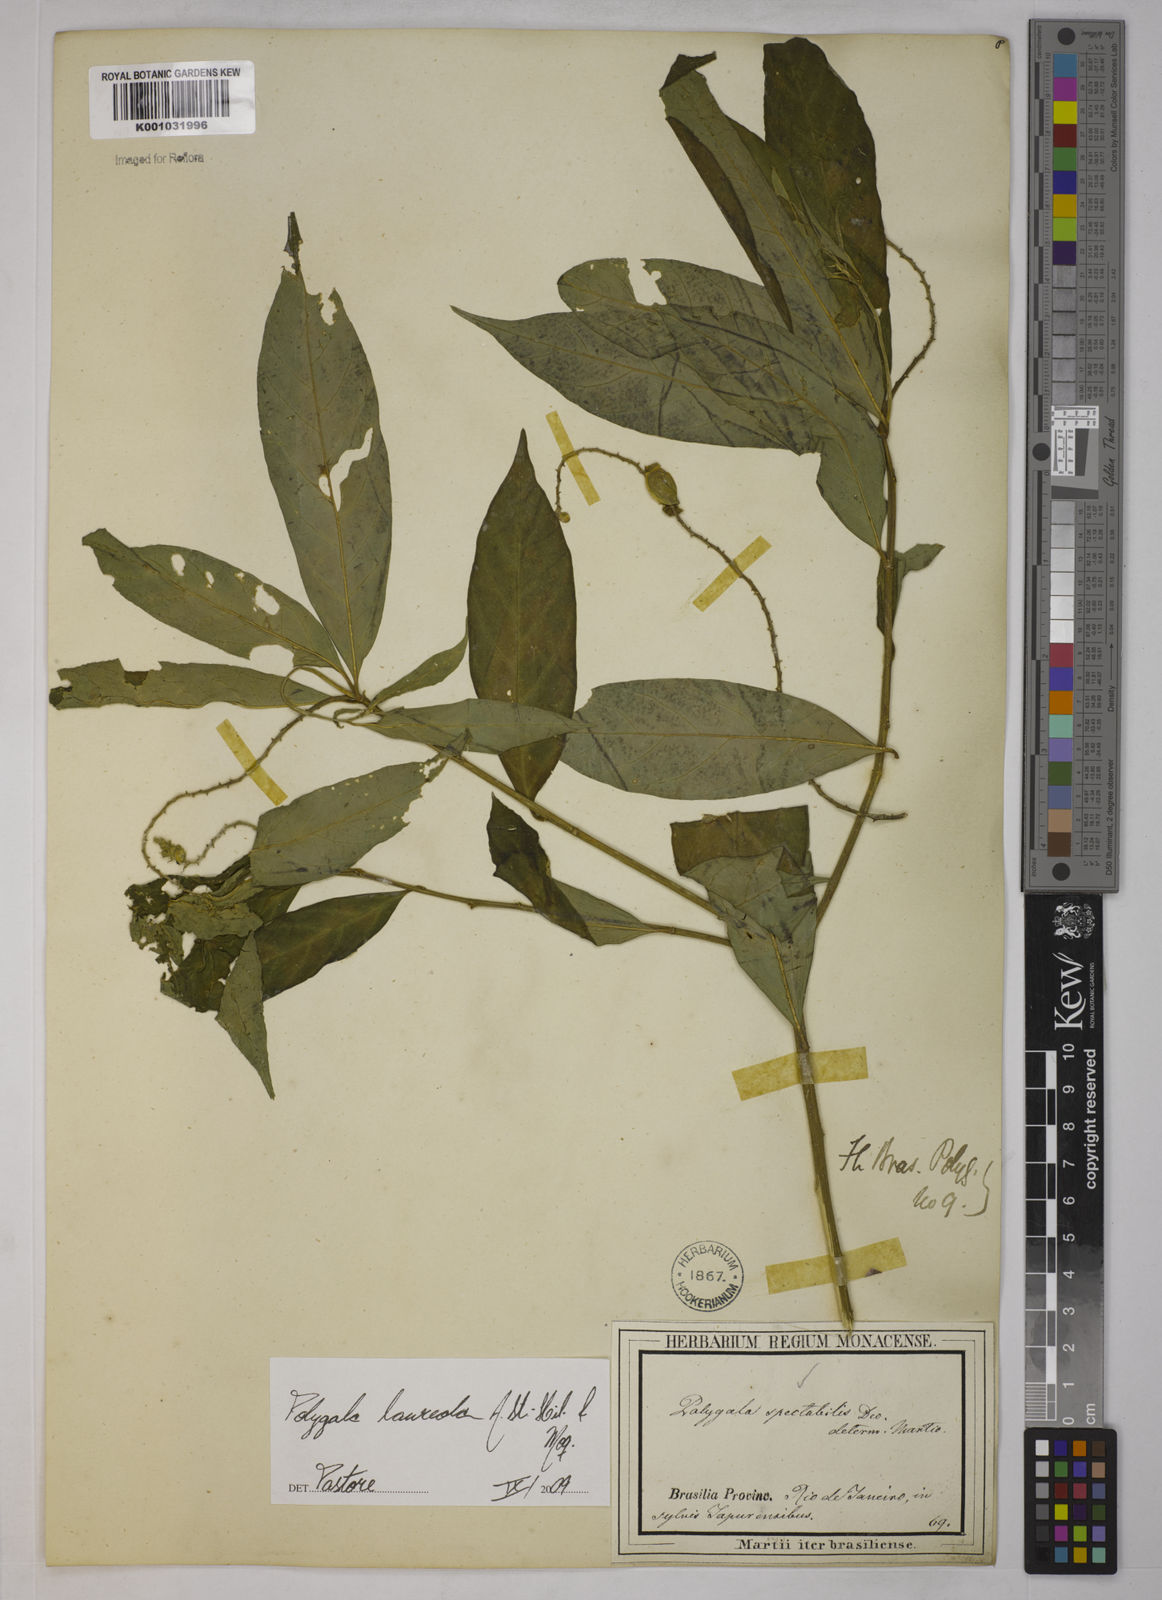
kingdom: Plantae
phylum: Tracheophyta
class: Magnoliopsida
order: Fabales
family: Polygalaceae
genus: Caamembeca
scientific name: Caamembeca salicifolia
